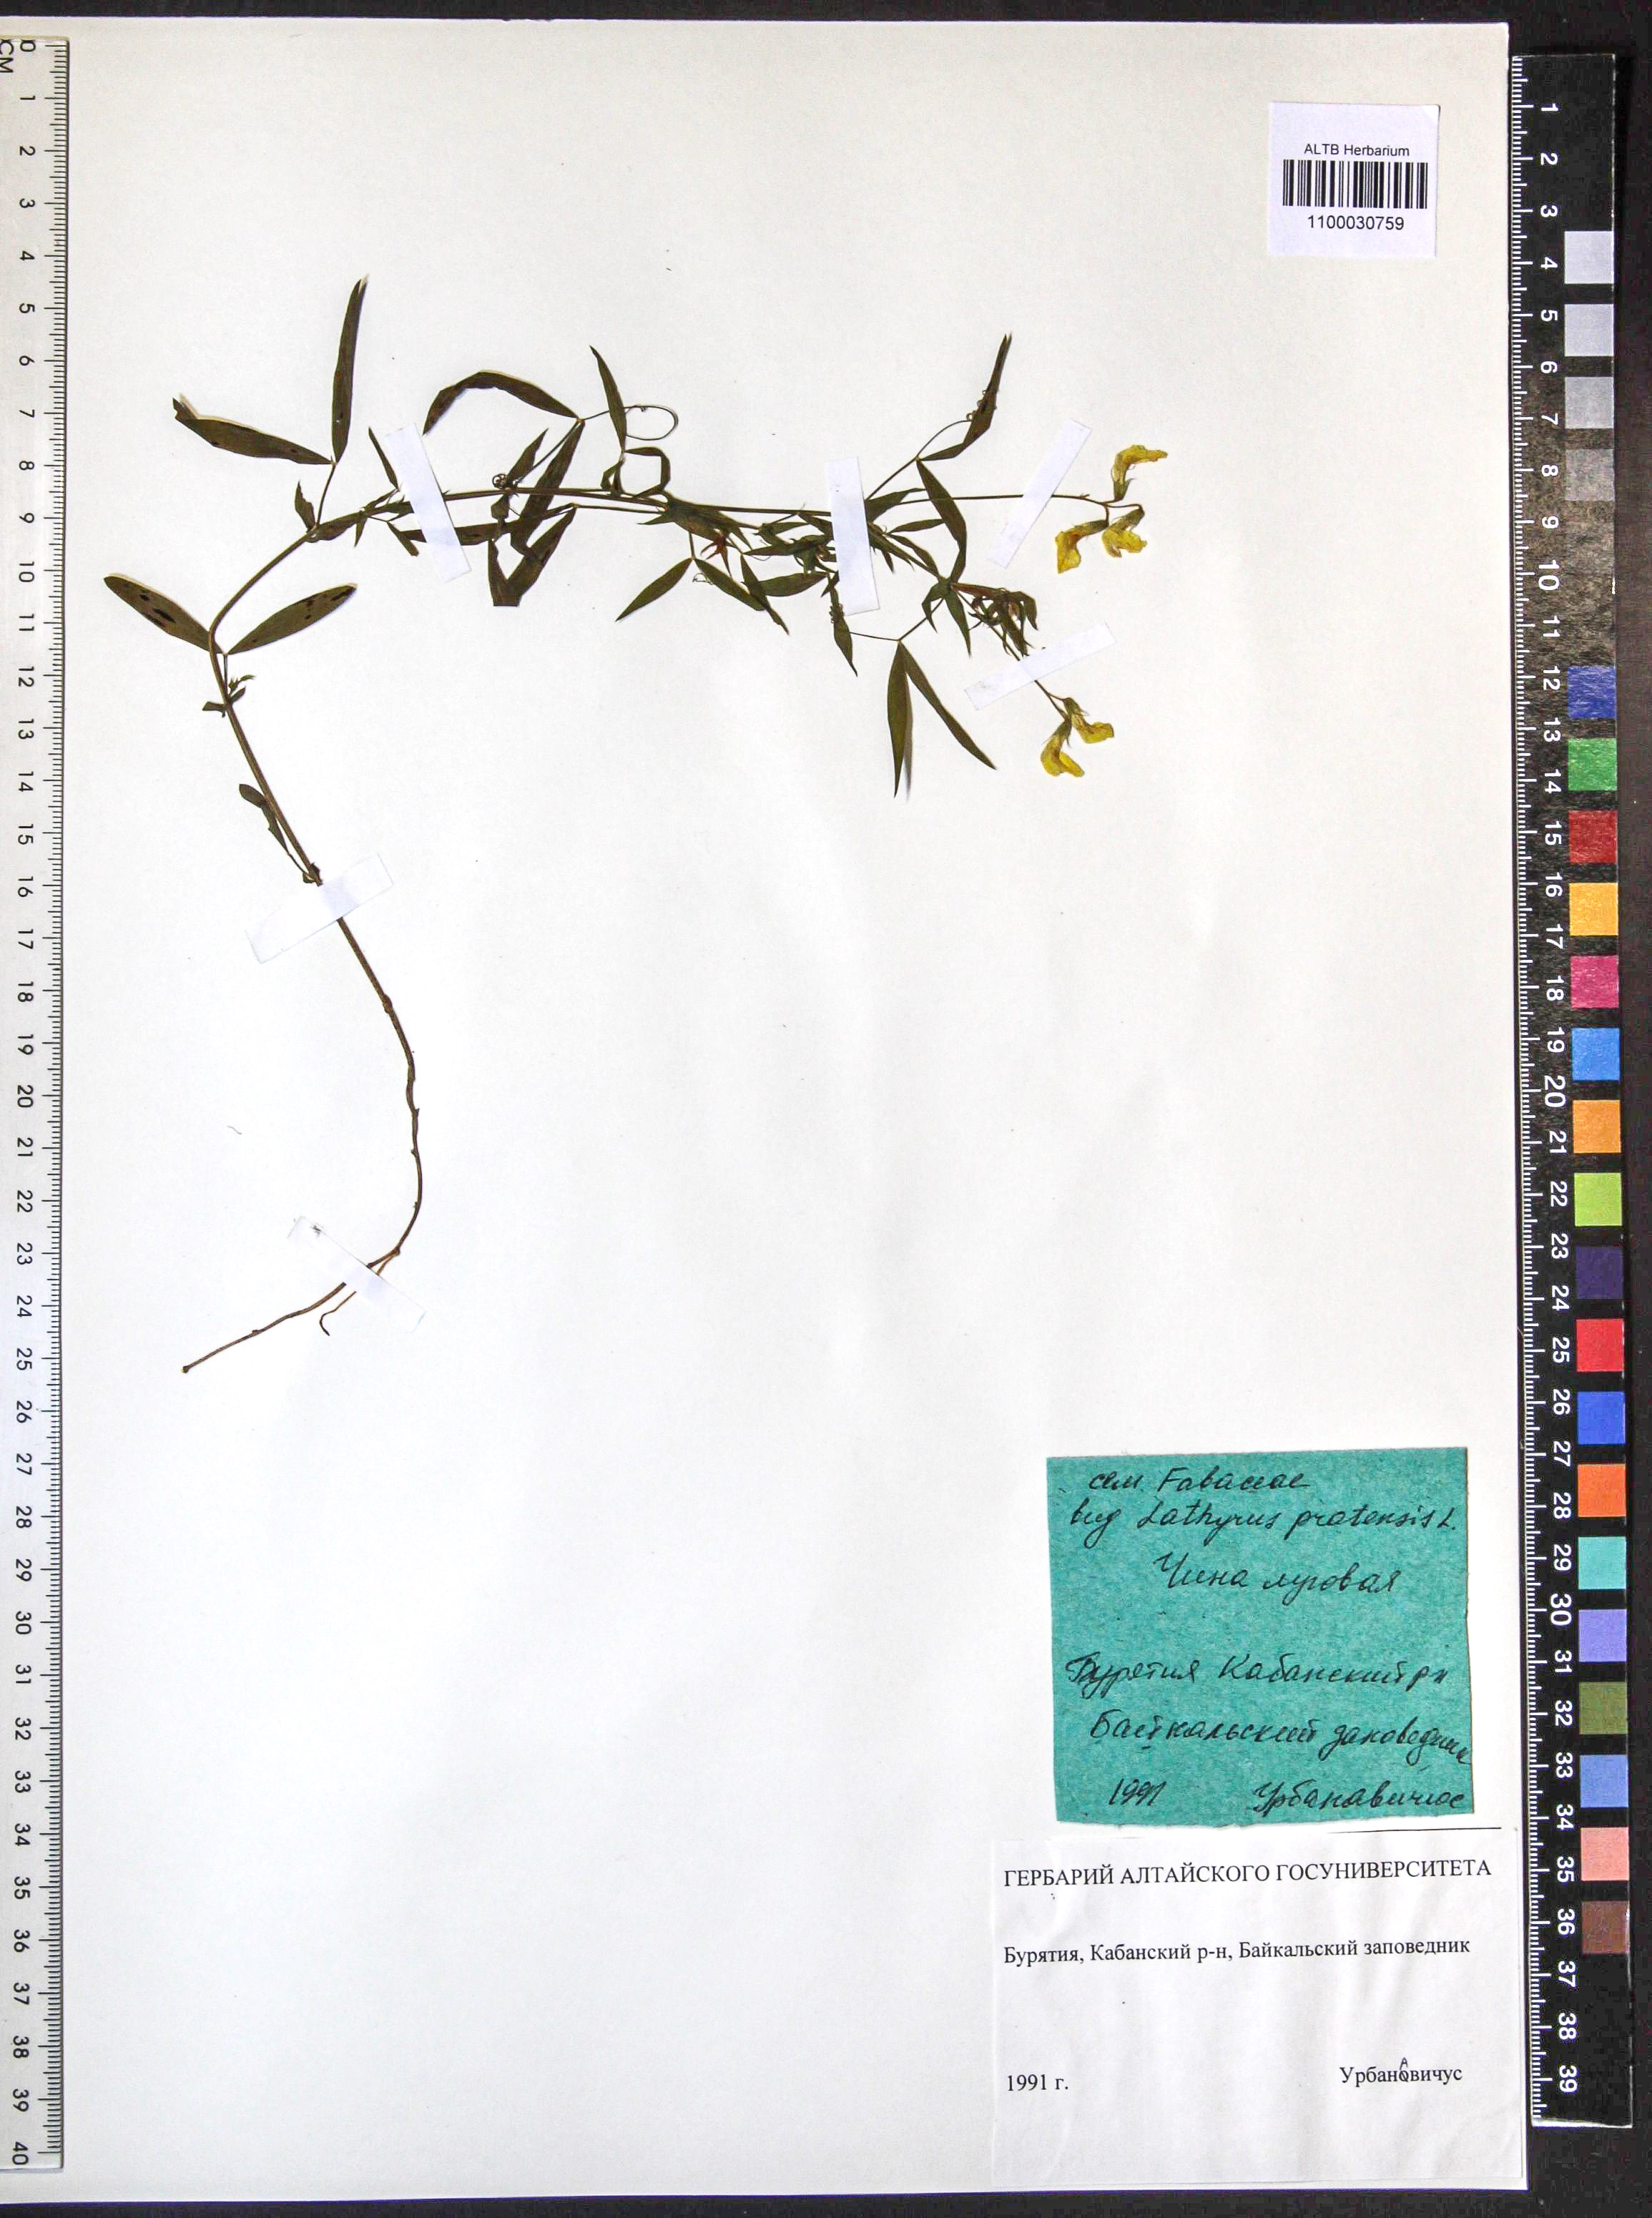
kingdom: Plantae
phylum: Tracheophyta
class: Magnoliopsida
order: Fabales
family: Fabaceae
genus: Lathyrus
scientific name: Lathyrus pratensis
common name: Meadow vetchling
